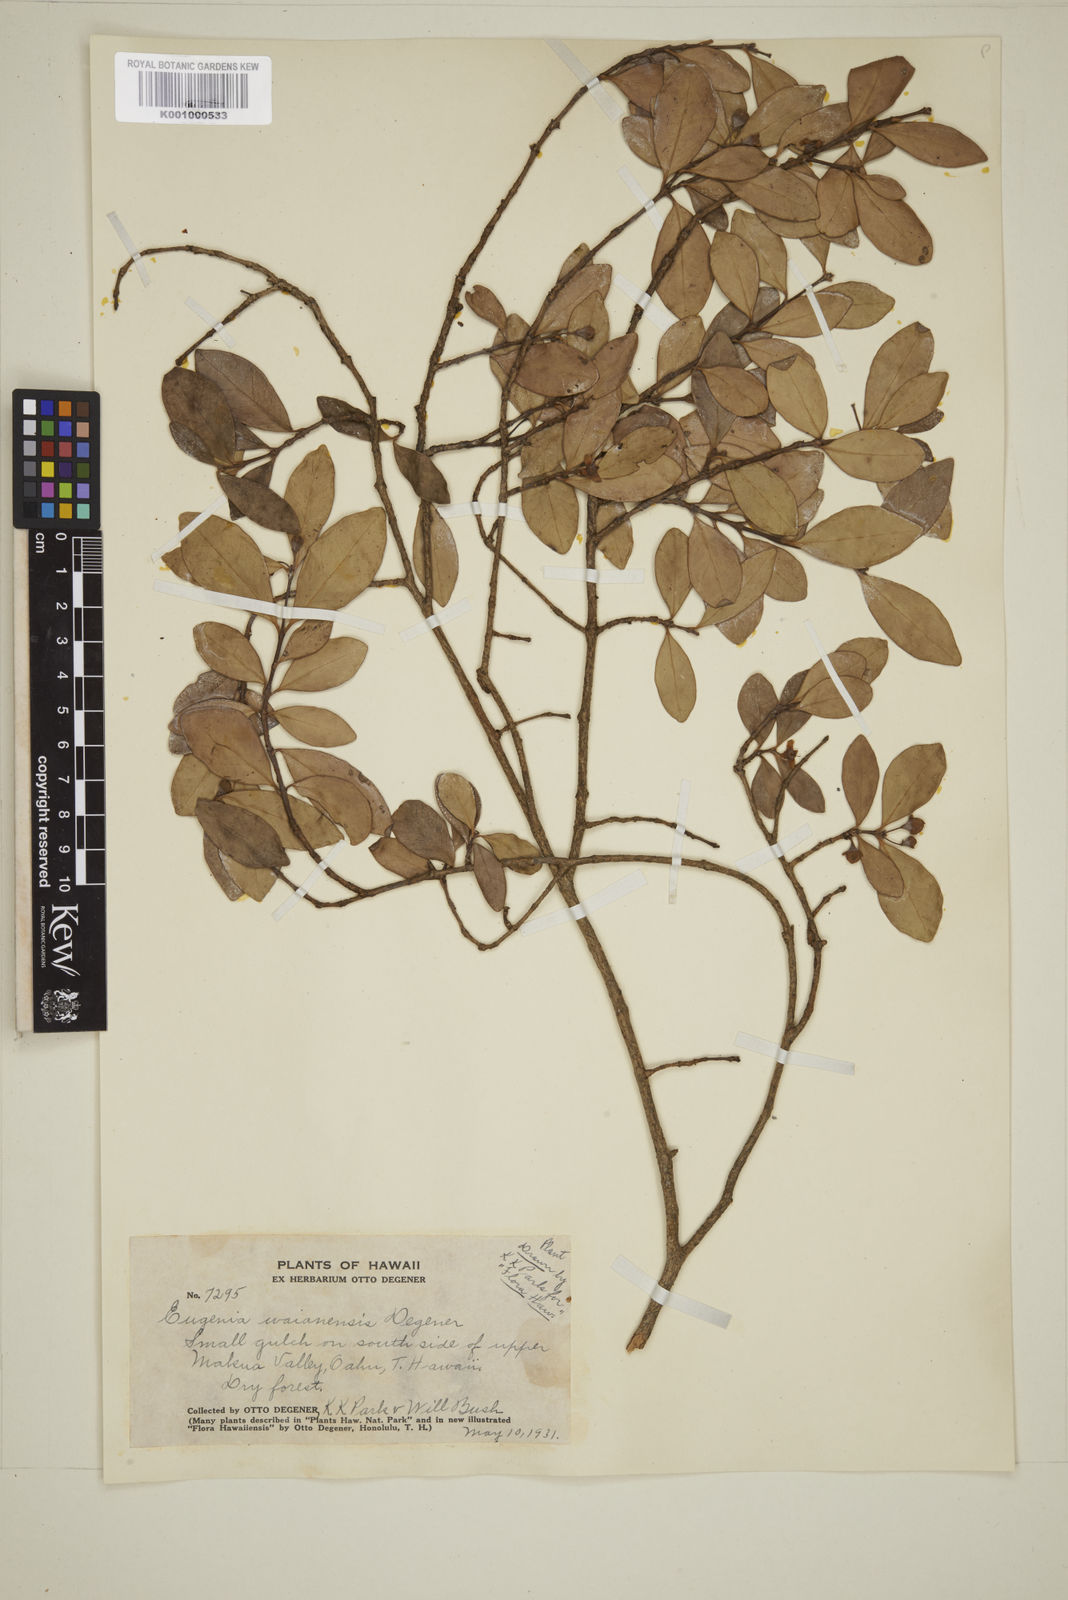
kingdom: Plantae
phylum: Tracheophyta
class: Magnoliopsida
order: Myrtales
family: Myrtaceae
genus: Eugenia
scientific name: Eugenia reinwardtiana
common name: Cedar bay-cherry
